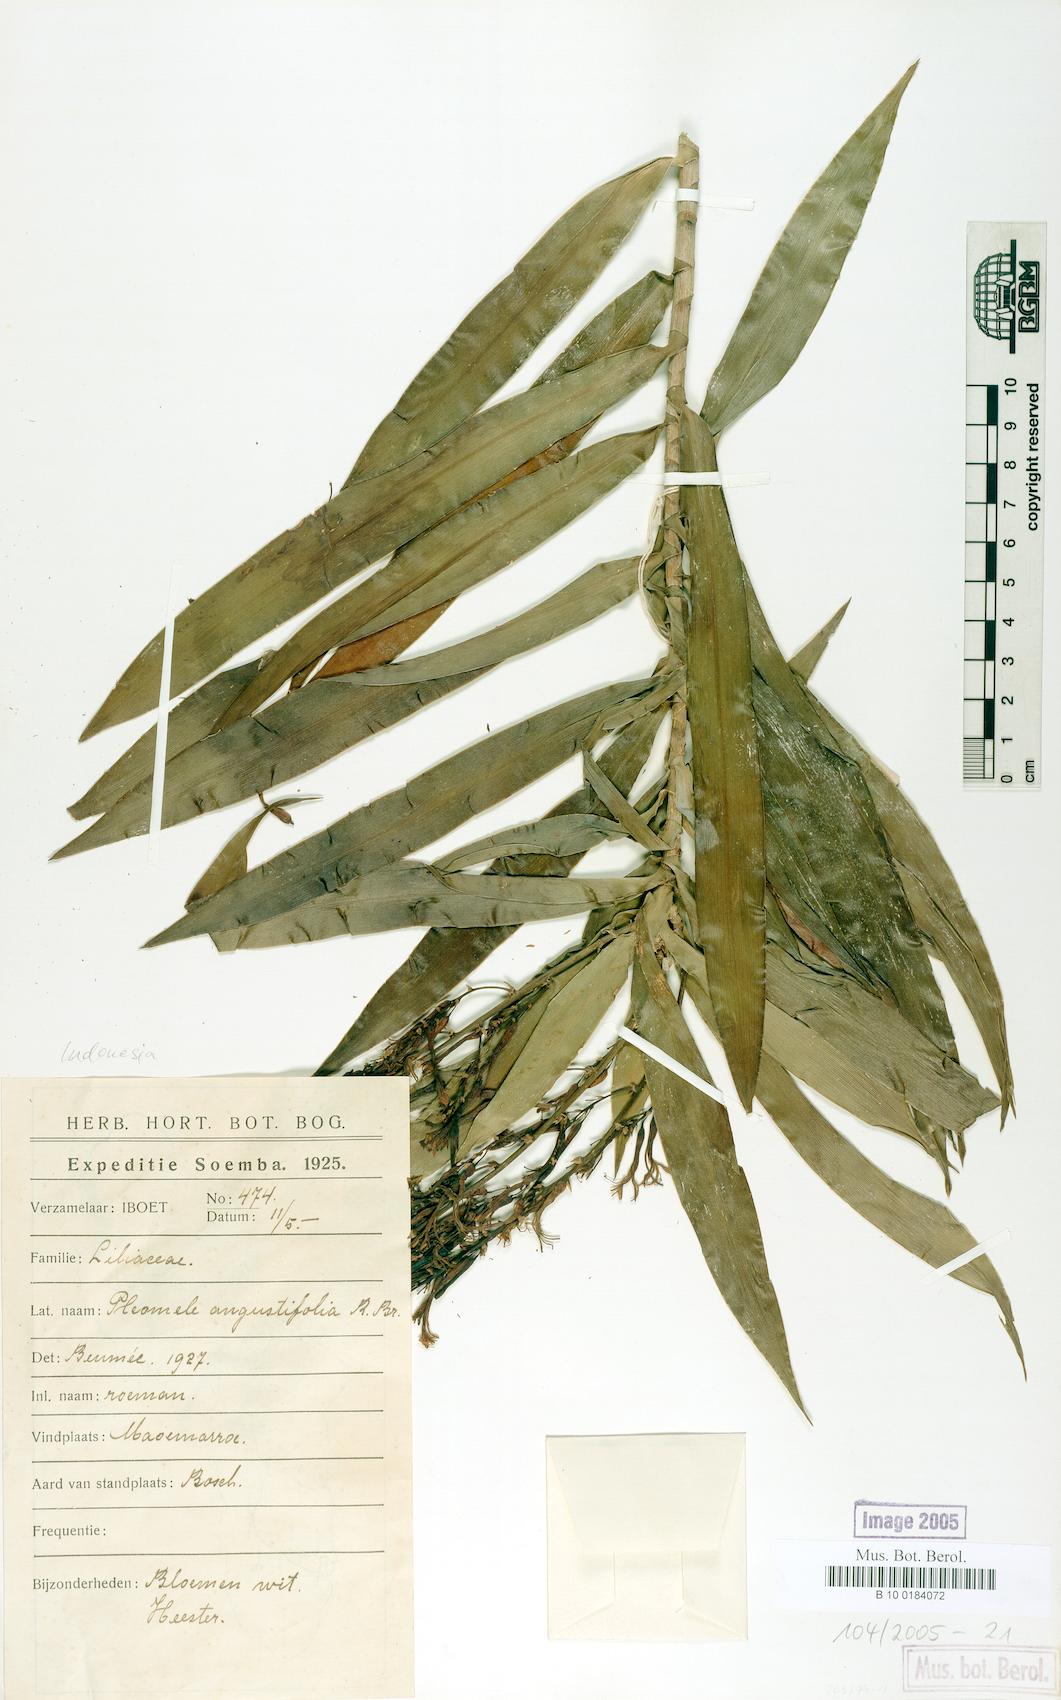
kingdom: Plantae
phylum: Tracheophyta
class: Liliopsida
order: Asparagales
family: Asparagaceae
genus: Dracaena
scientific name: Dracaena angustifolia
